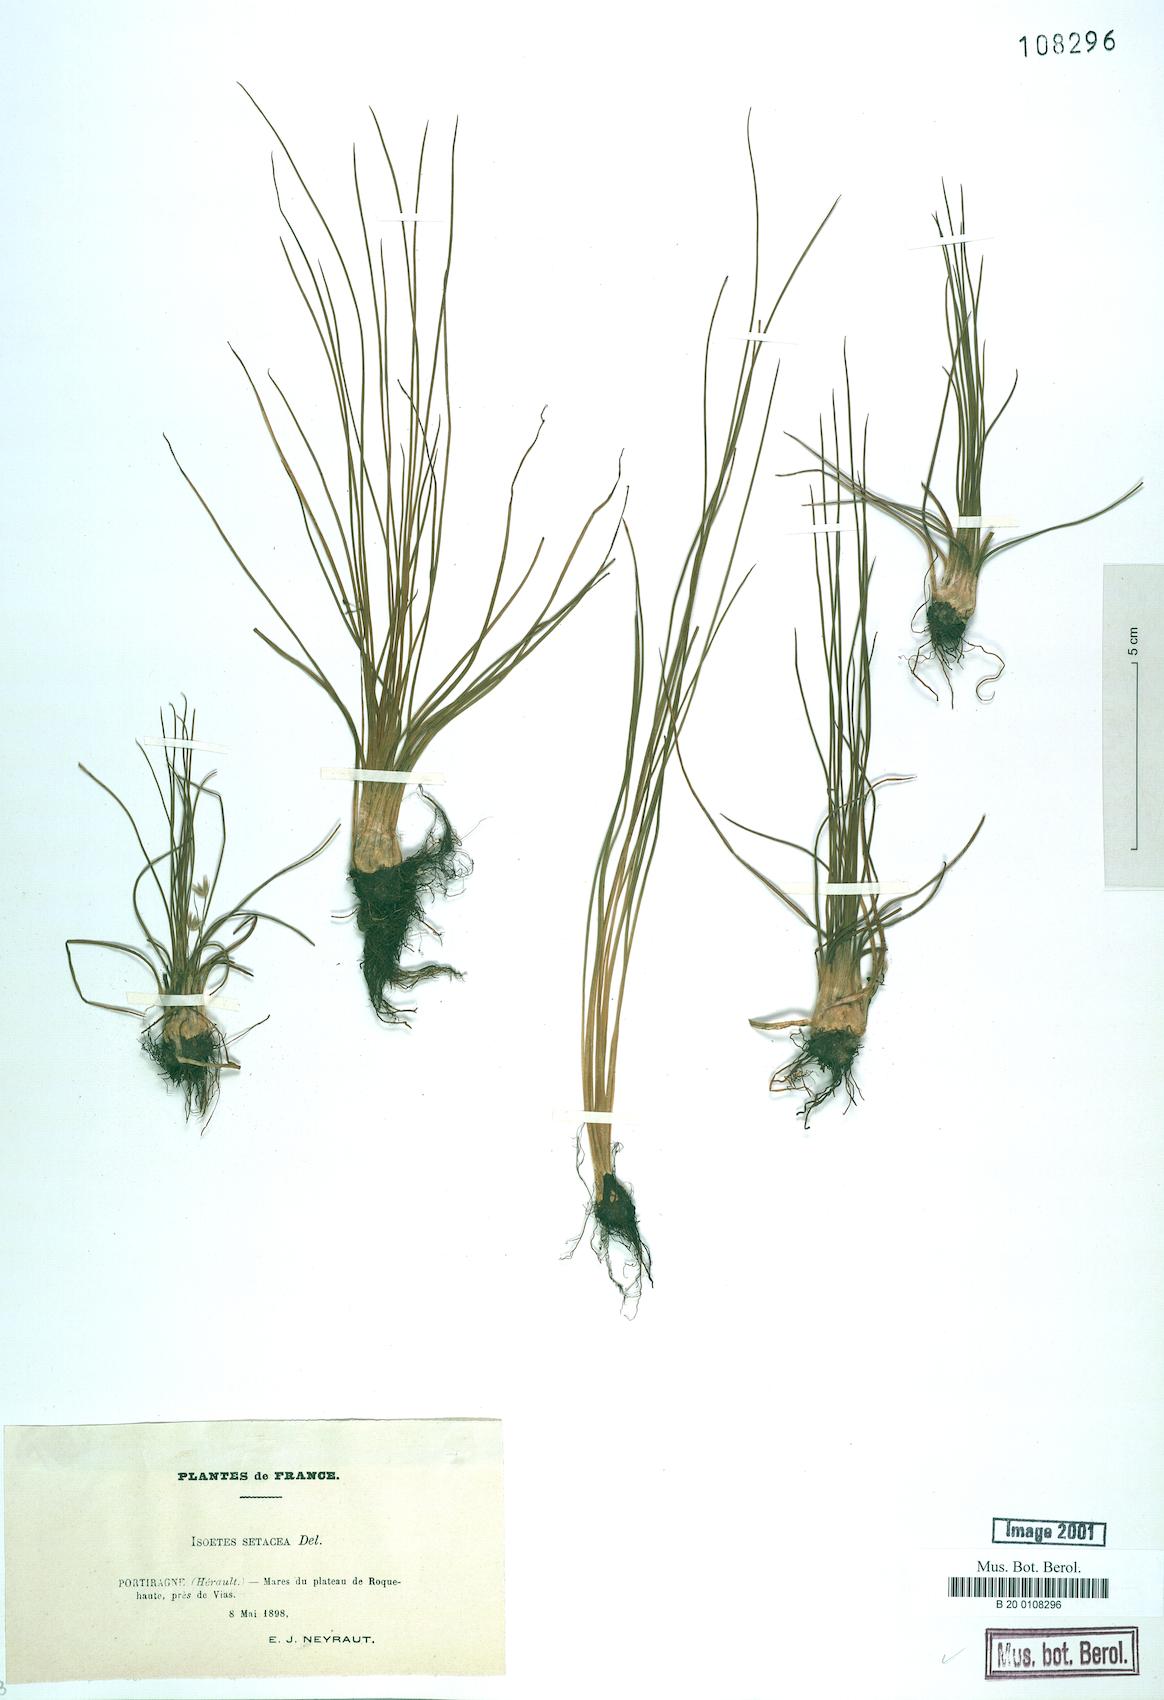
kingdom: Plantae
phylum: Tracheophyta
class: Lycopodiopsida
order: Isoetales
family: Isoetaceae
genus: Isoetes
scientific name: Isoetes lacustris
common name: Common quillwort
